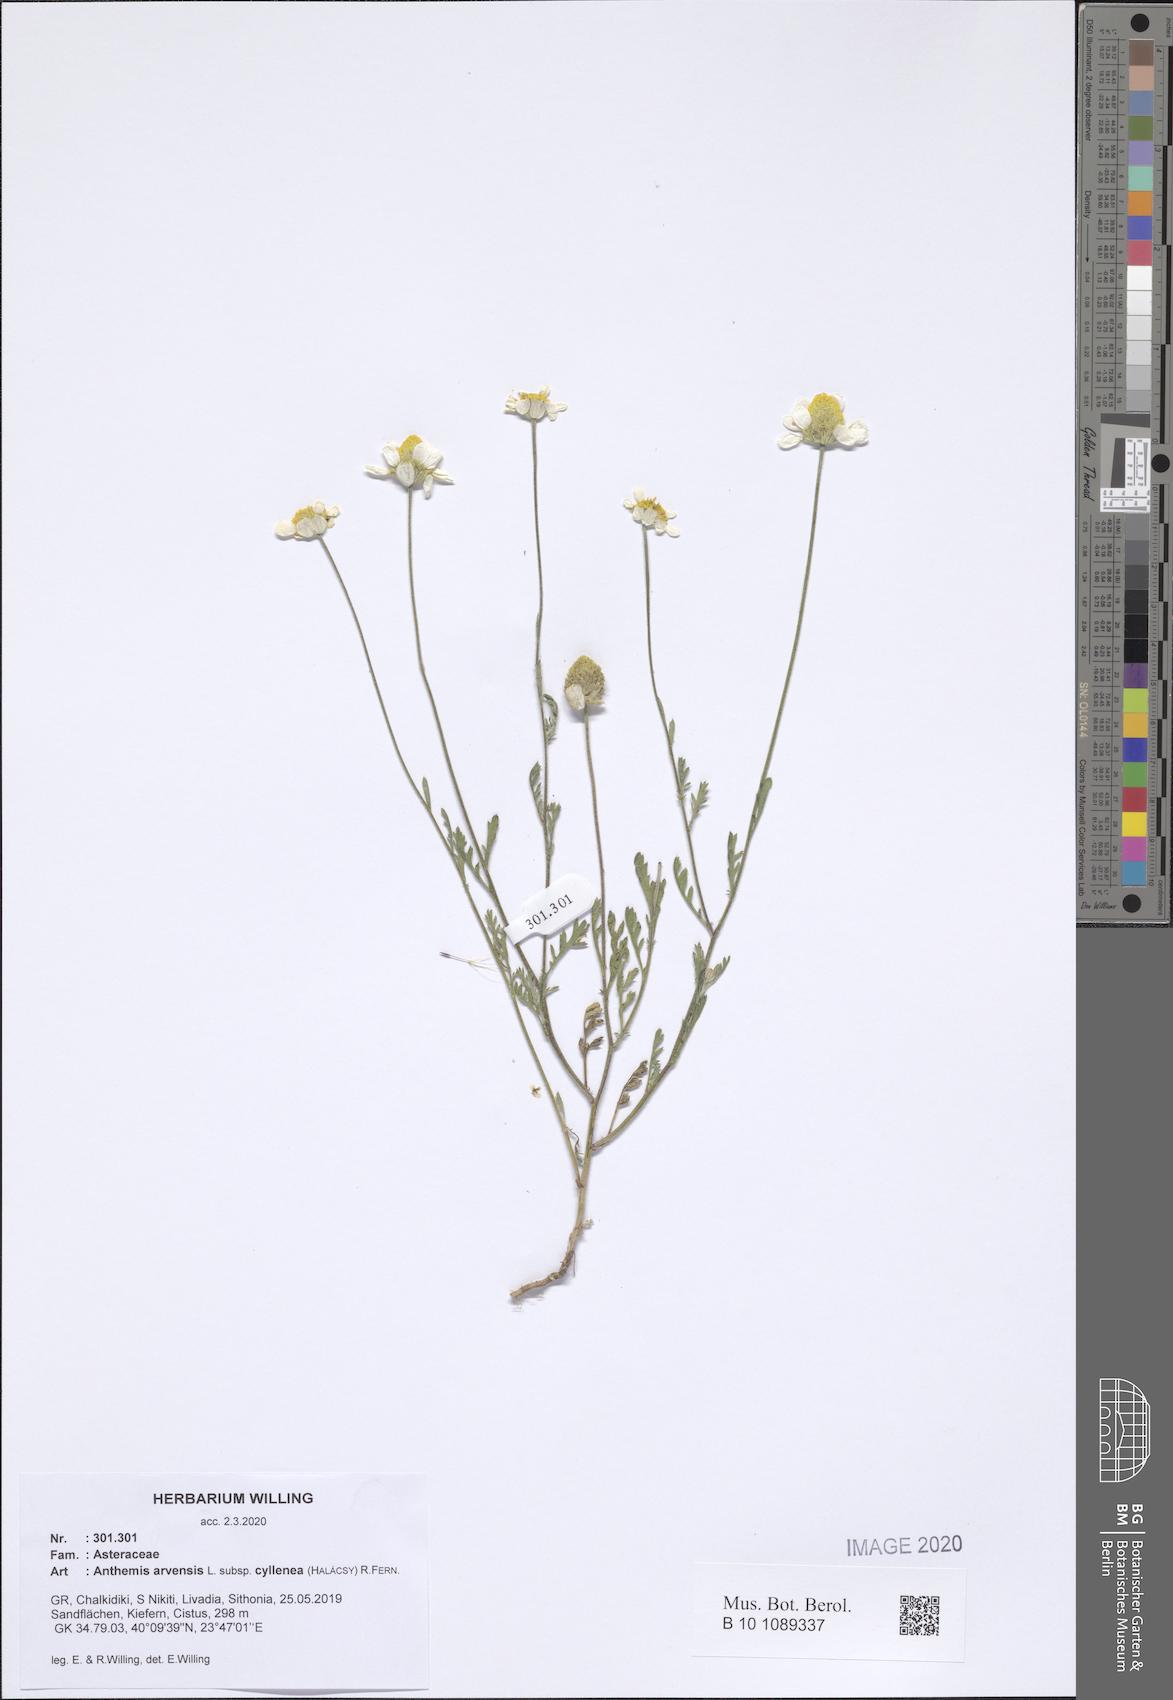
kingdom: Plantae
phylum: Tracheophyta
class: Magnoliopsida
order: Asterales
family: Asteraceae
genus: Anthemis
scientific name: Anthemis arvensis
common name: Corn chamomile
